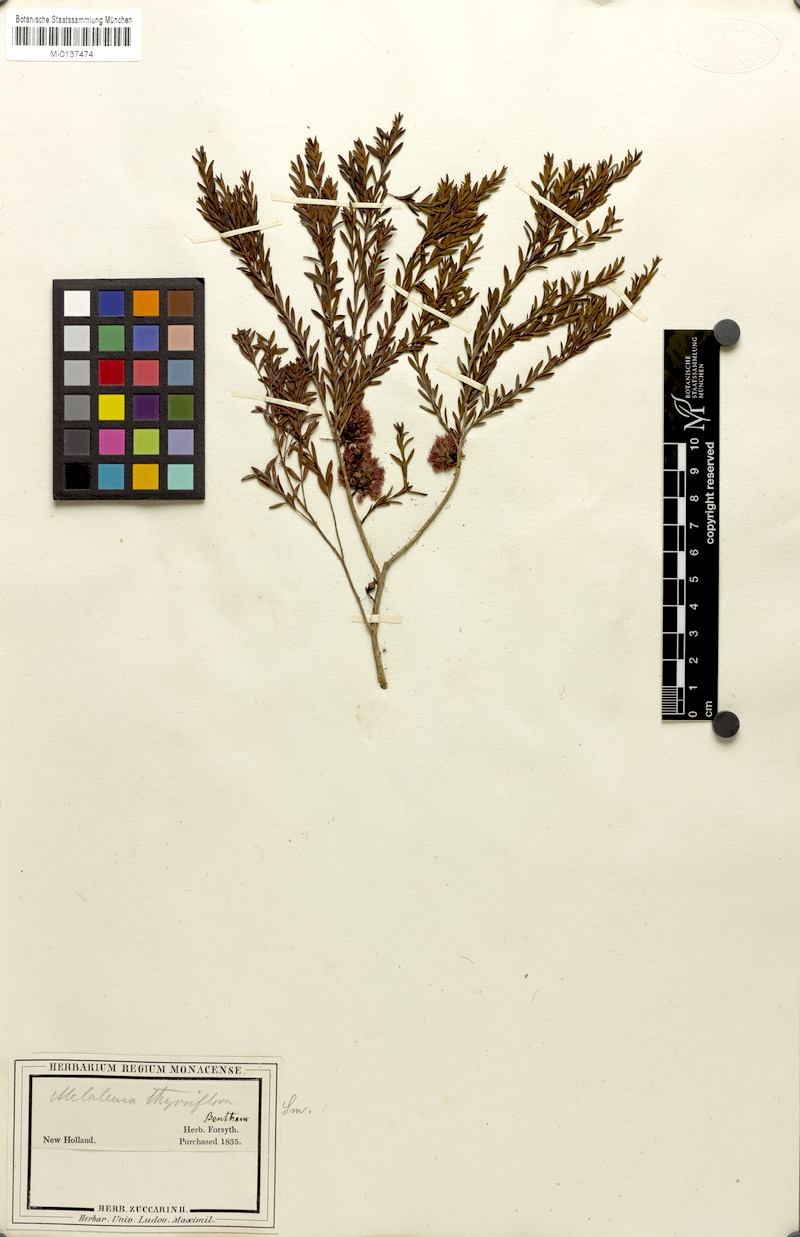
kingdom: Plantae
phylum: Tracheophyta
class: Magnoliopsida
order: Myrtales
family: Myrtaceae
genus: Melaleuca
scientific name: Melaleuca thymifolia
